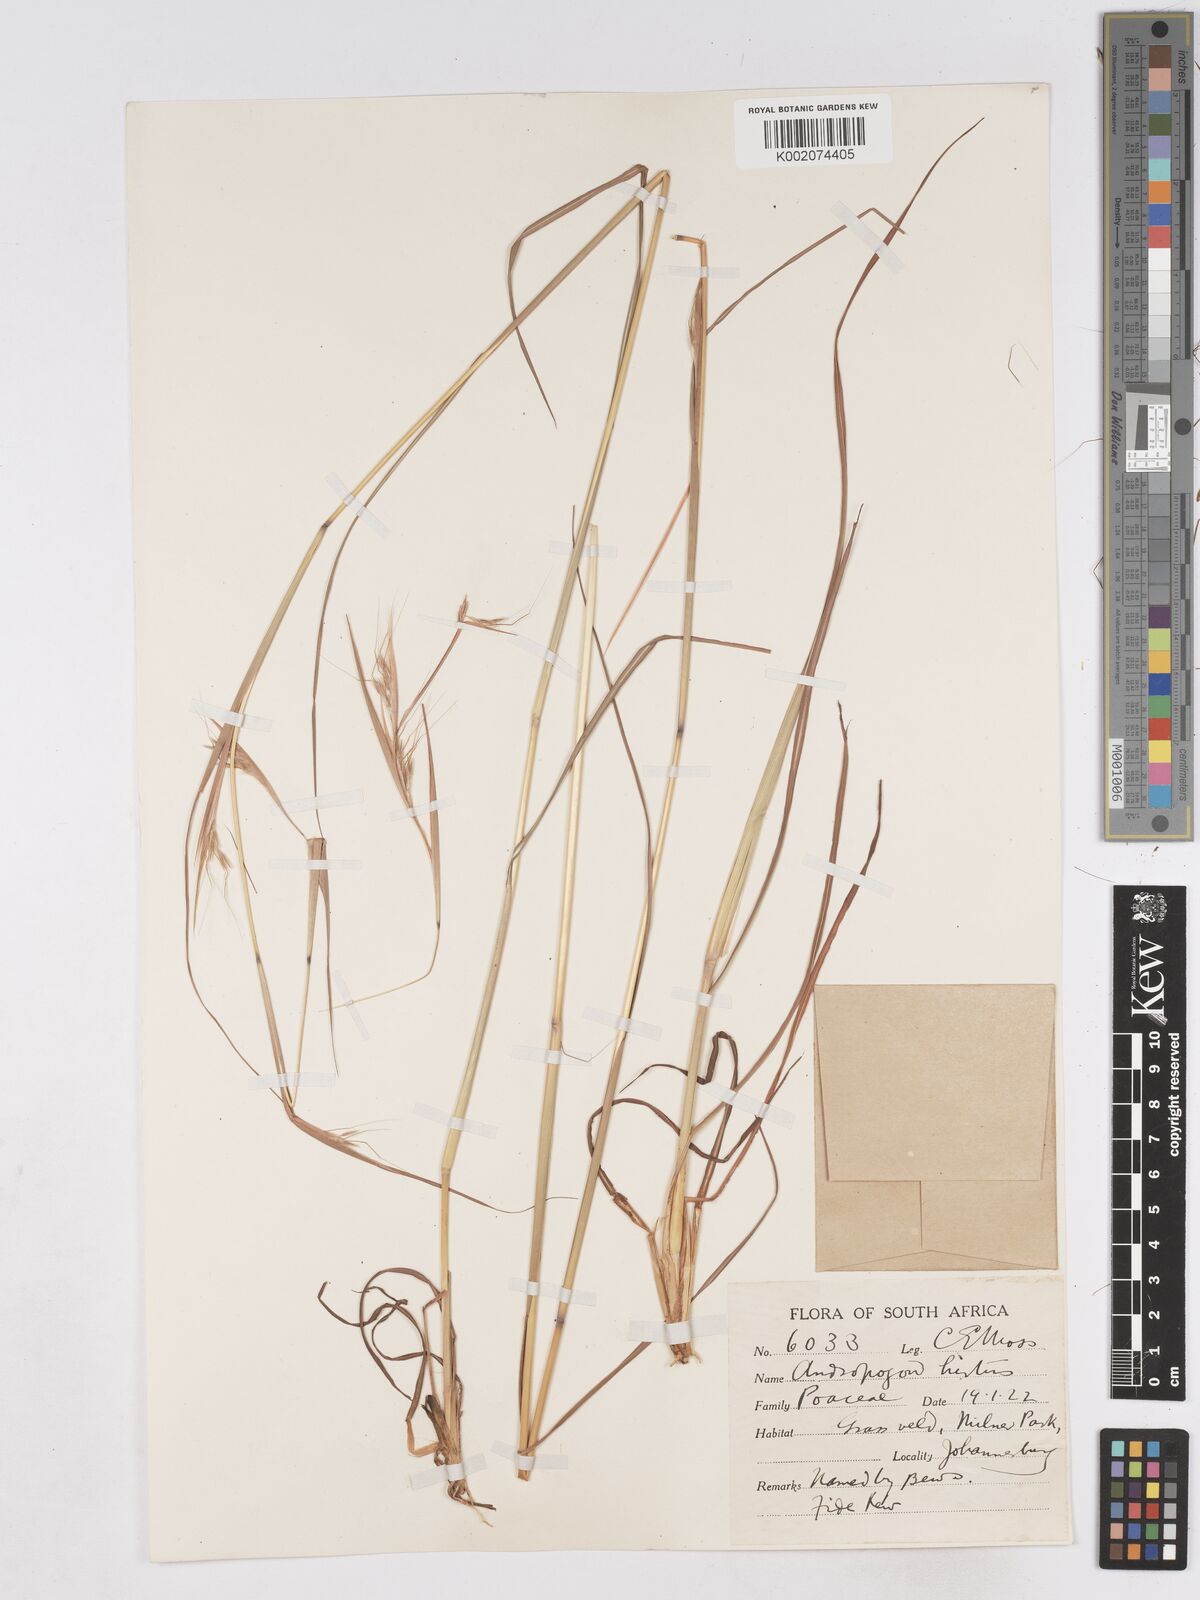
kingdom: Plantae
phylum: Tracheophyta
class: Liliopsida
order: Poales
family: Poaceae
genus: Hyparrhenia
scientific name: Hyparrhenia hirta
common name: Thatching grass
